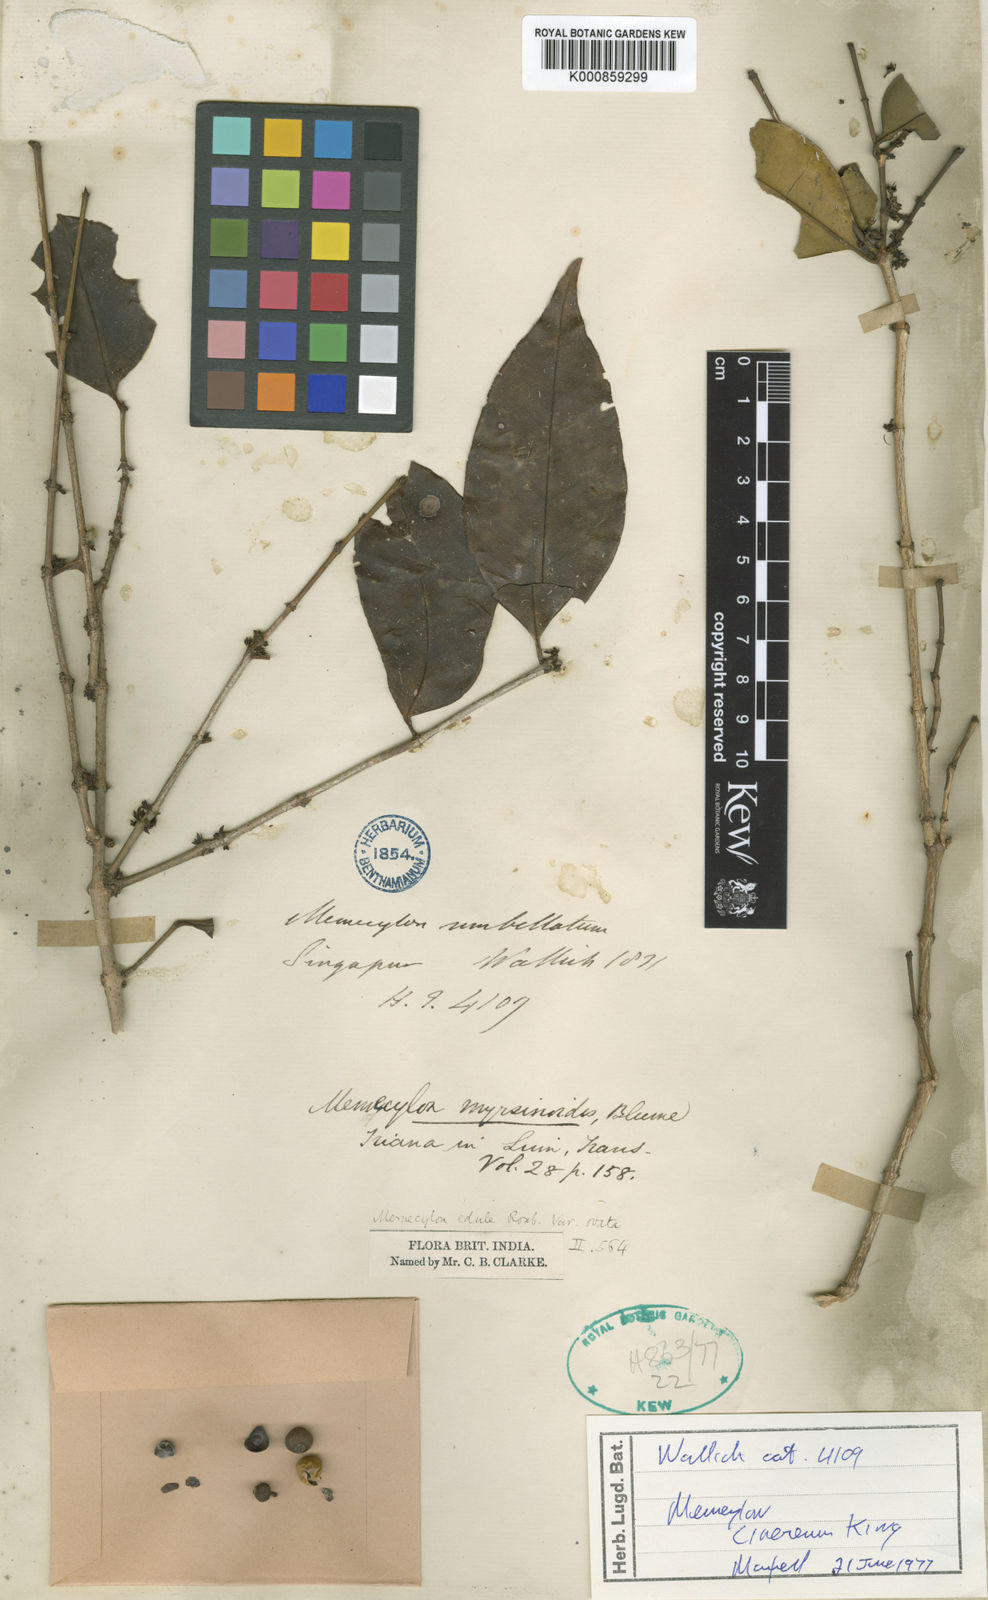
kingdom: Plantae
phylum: Tracheophyta
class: Magnoliopsida
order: Myrtales
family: Melastomataceae
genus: Memecylon
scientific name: Memecylon cinereum
